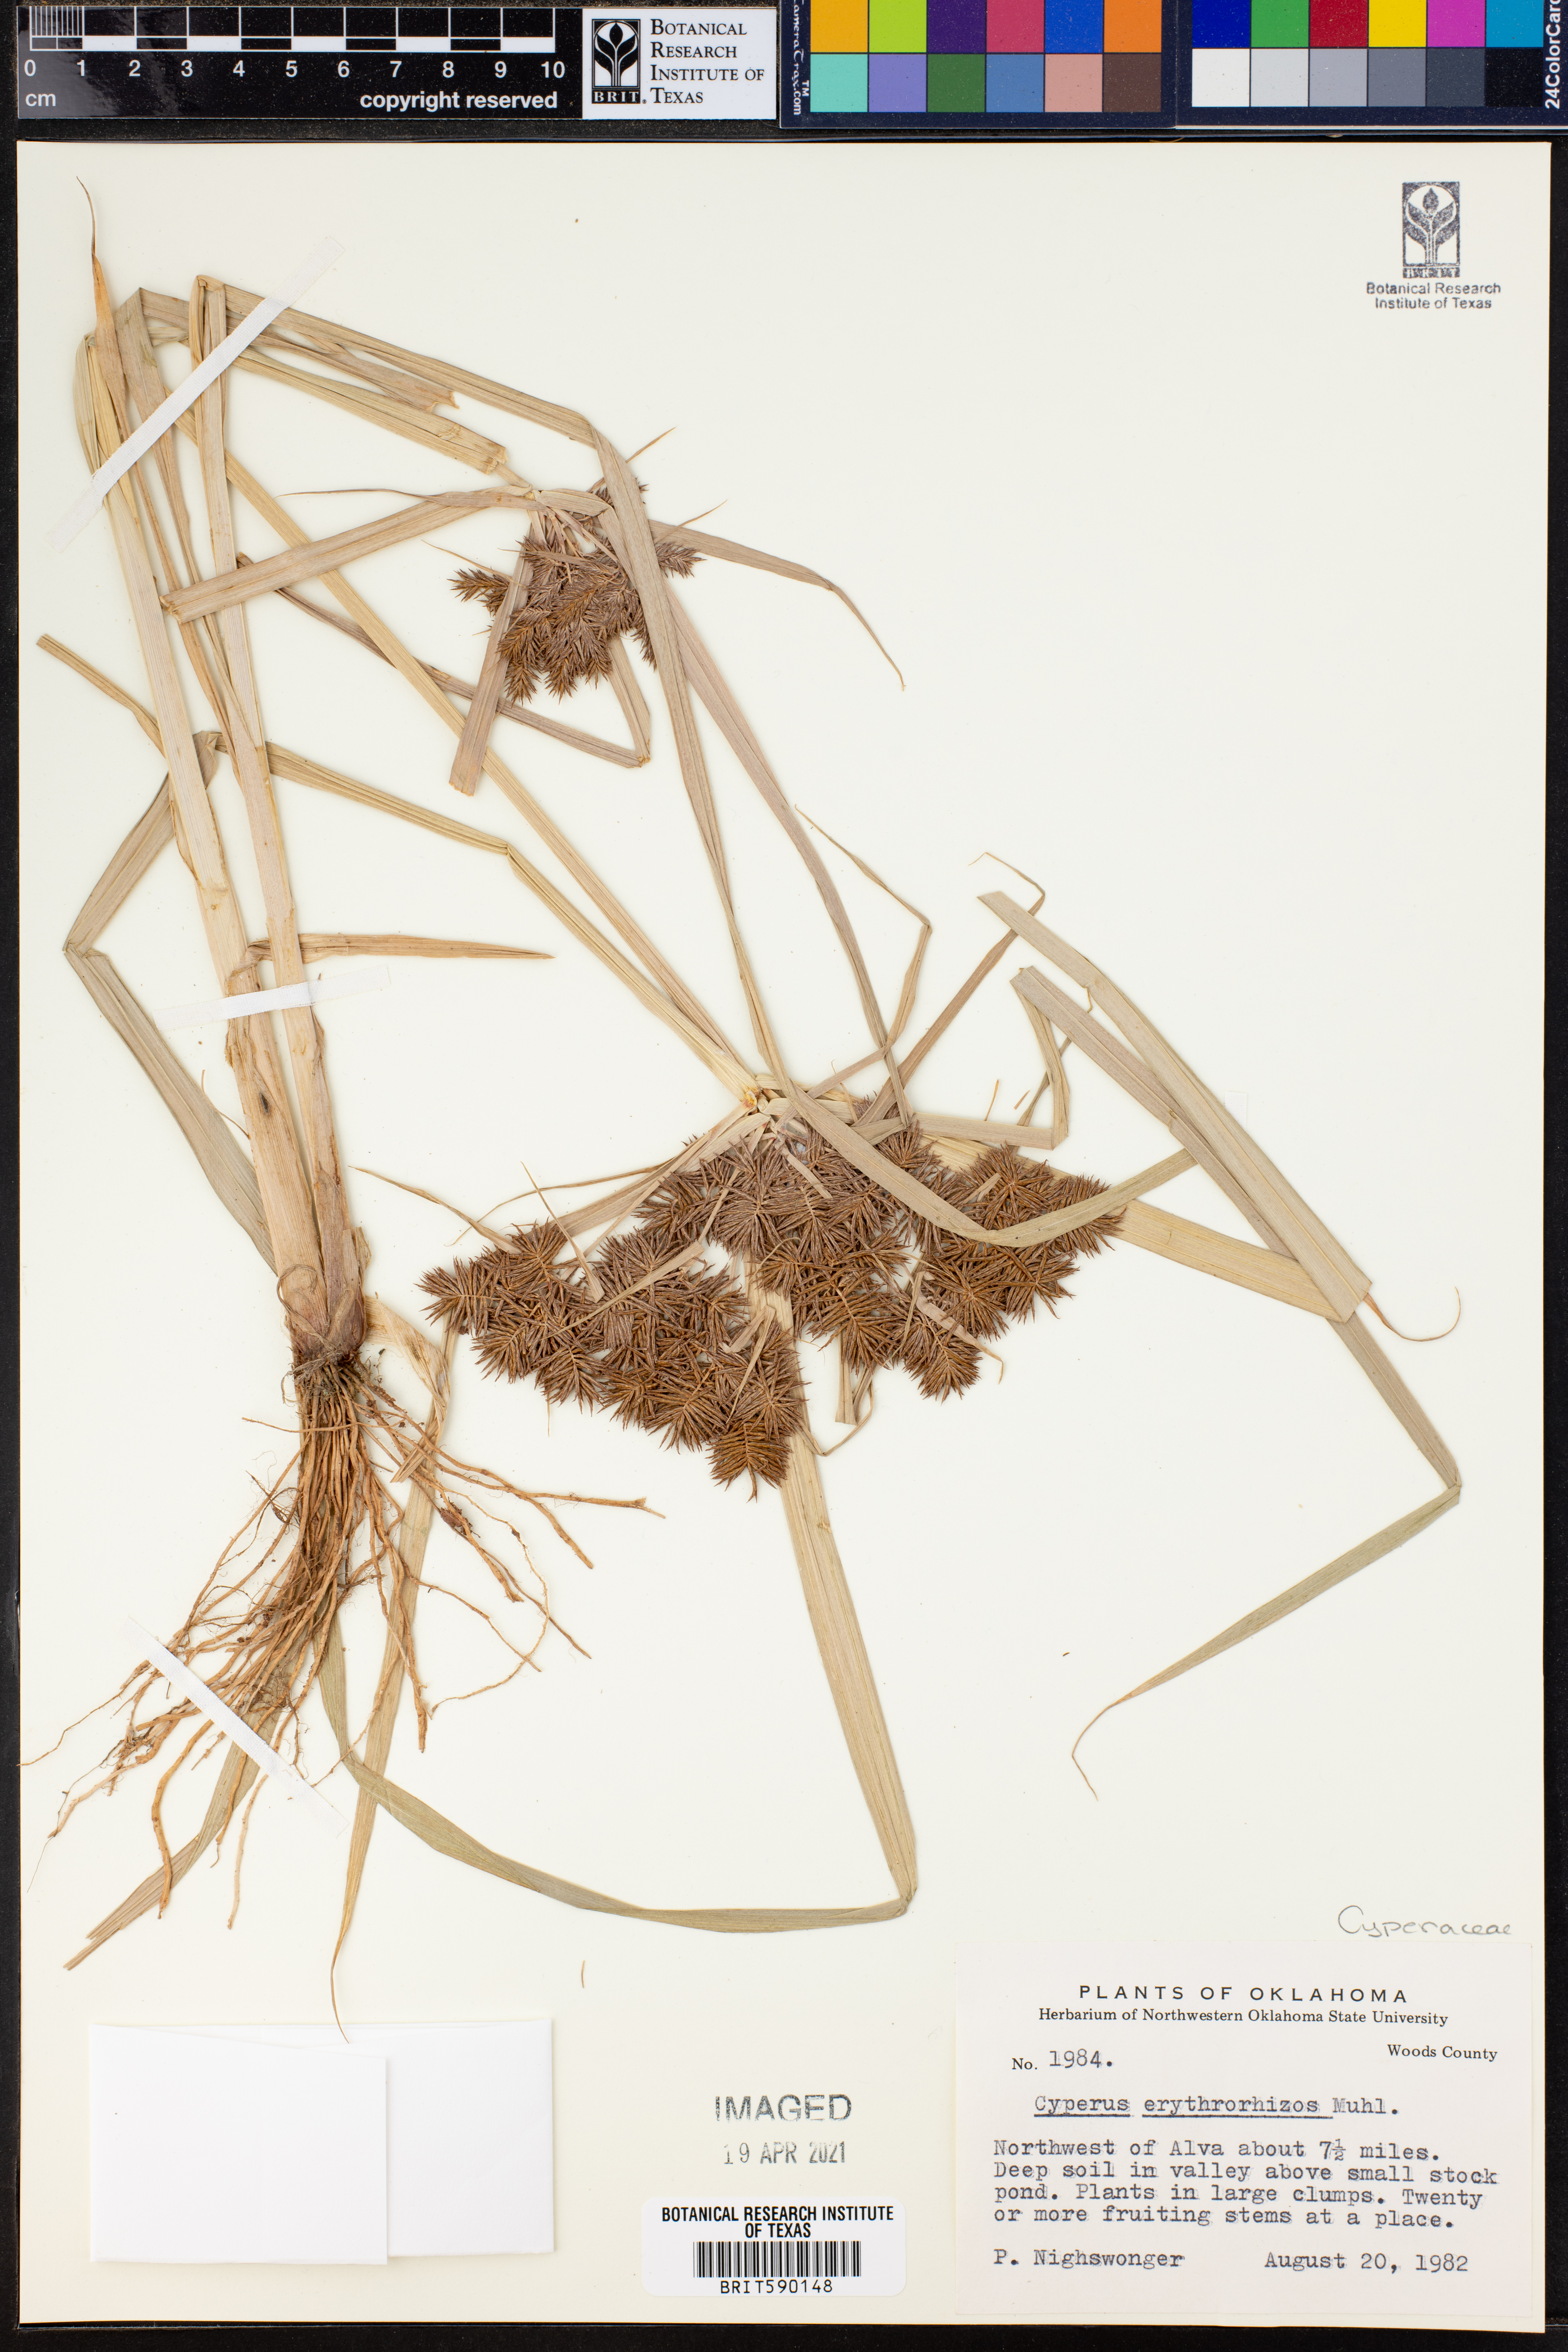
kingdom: Plantae
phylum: Tracheophyta
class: Liliopsida
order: Poales
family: Cyperaceae
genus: Cyperus
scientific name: Cyperus erythrorhizos
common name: Red-root flat sedge
